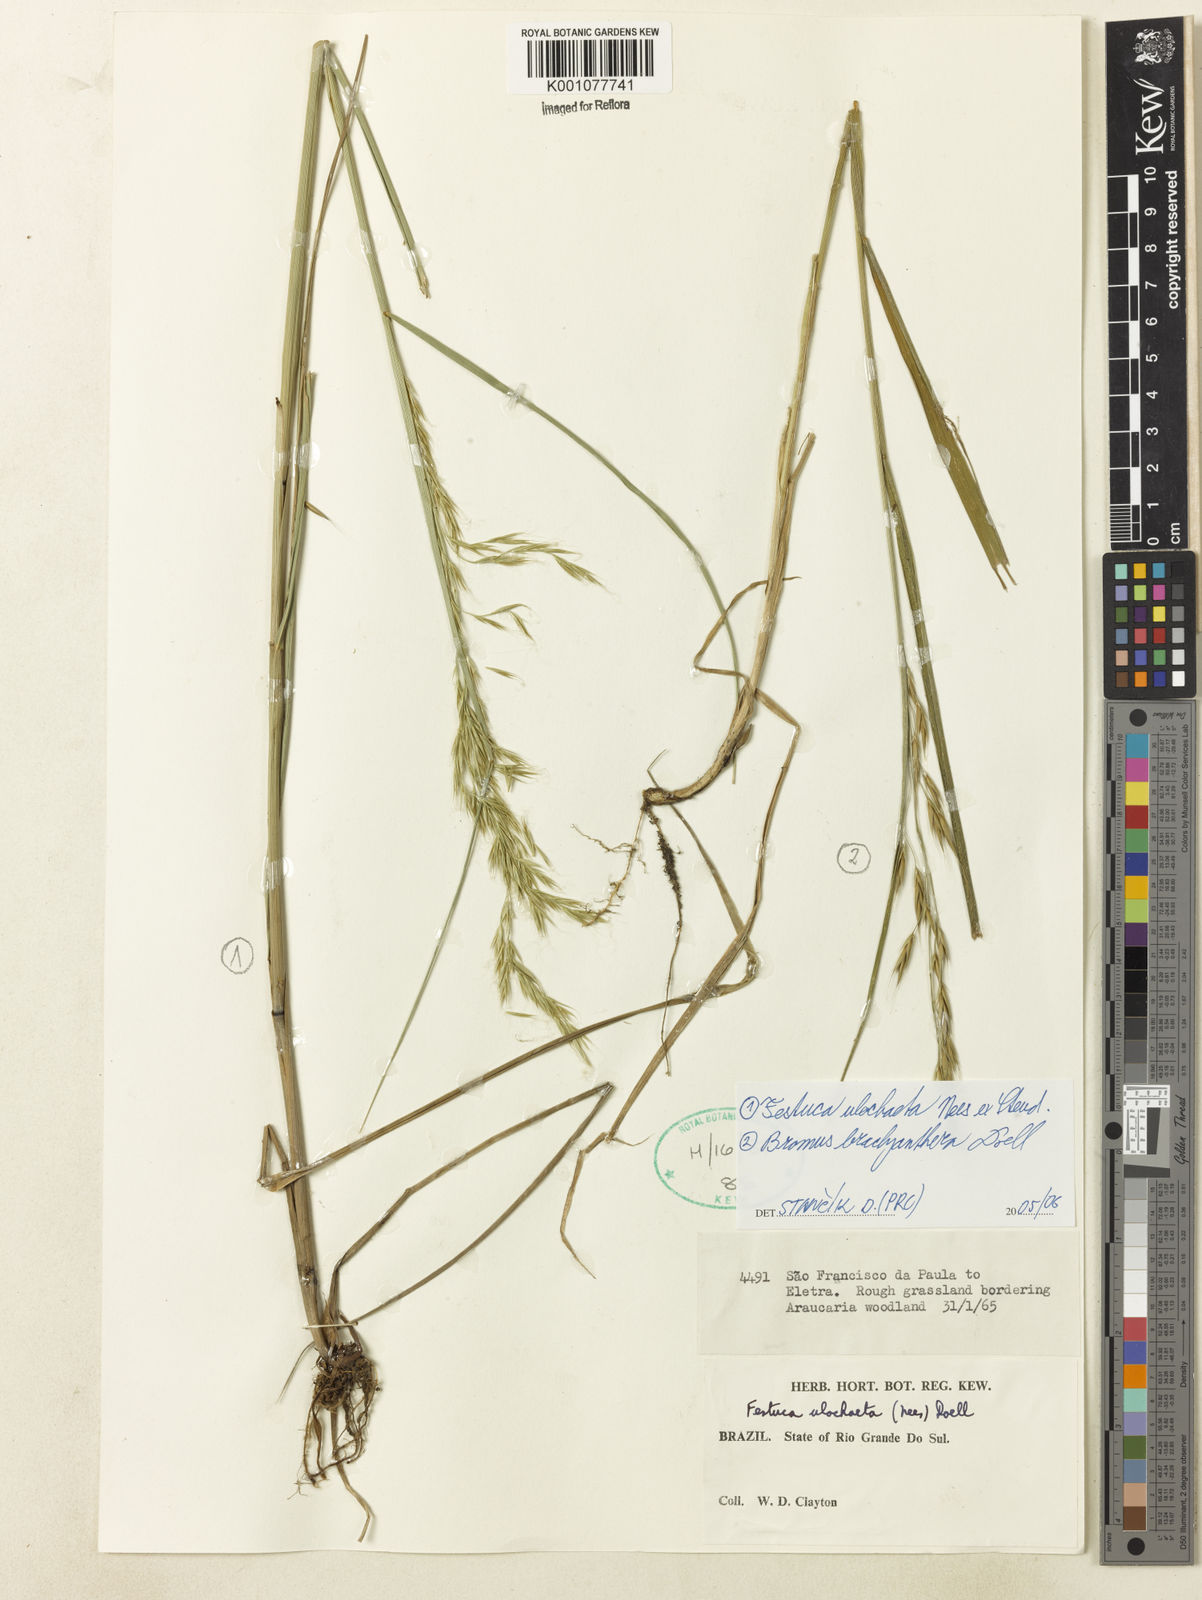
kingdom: Plantae
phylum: Tracheophyta
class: Liliopsida
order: Poales
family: Poaceae
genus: Festuca
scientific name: Festuca ulochaeta
